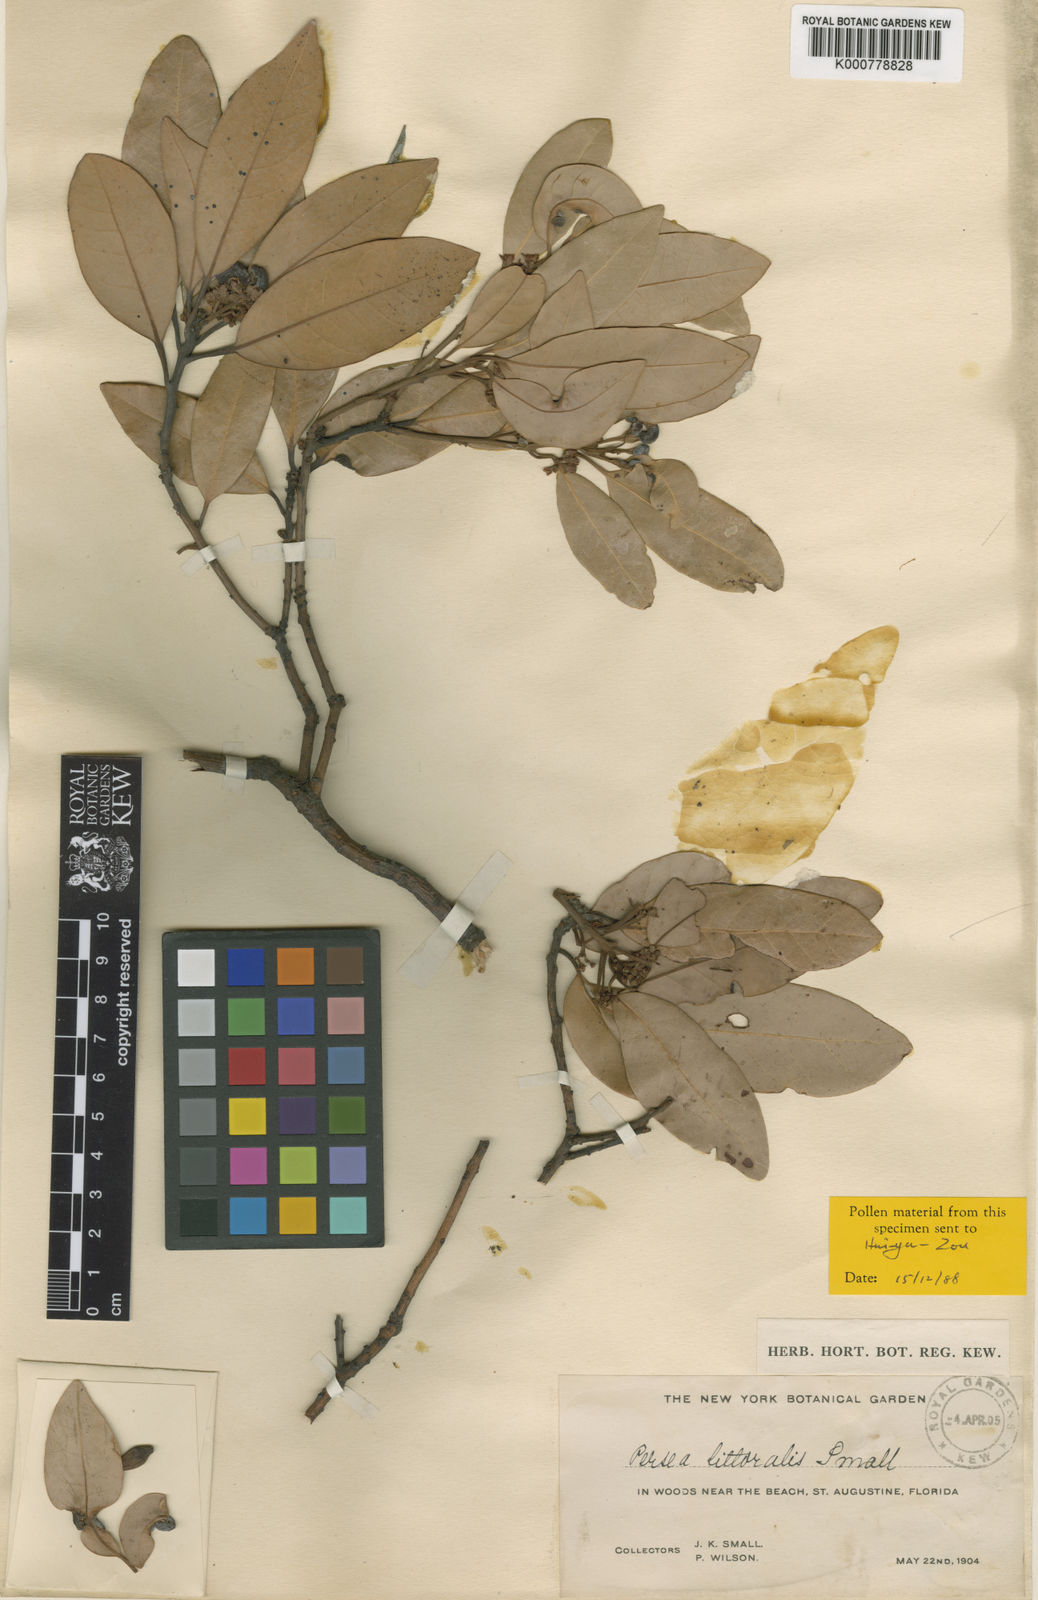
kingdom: Plantae
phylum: Tracheophyta
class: Magnoliopsida
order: Laurales
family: Lauraceae
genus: Persea
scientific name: Persea borbonia
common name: Redbay
